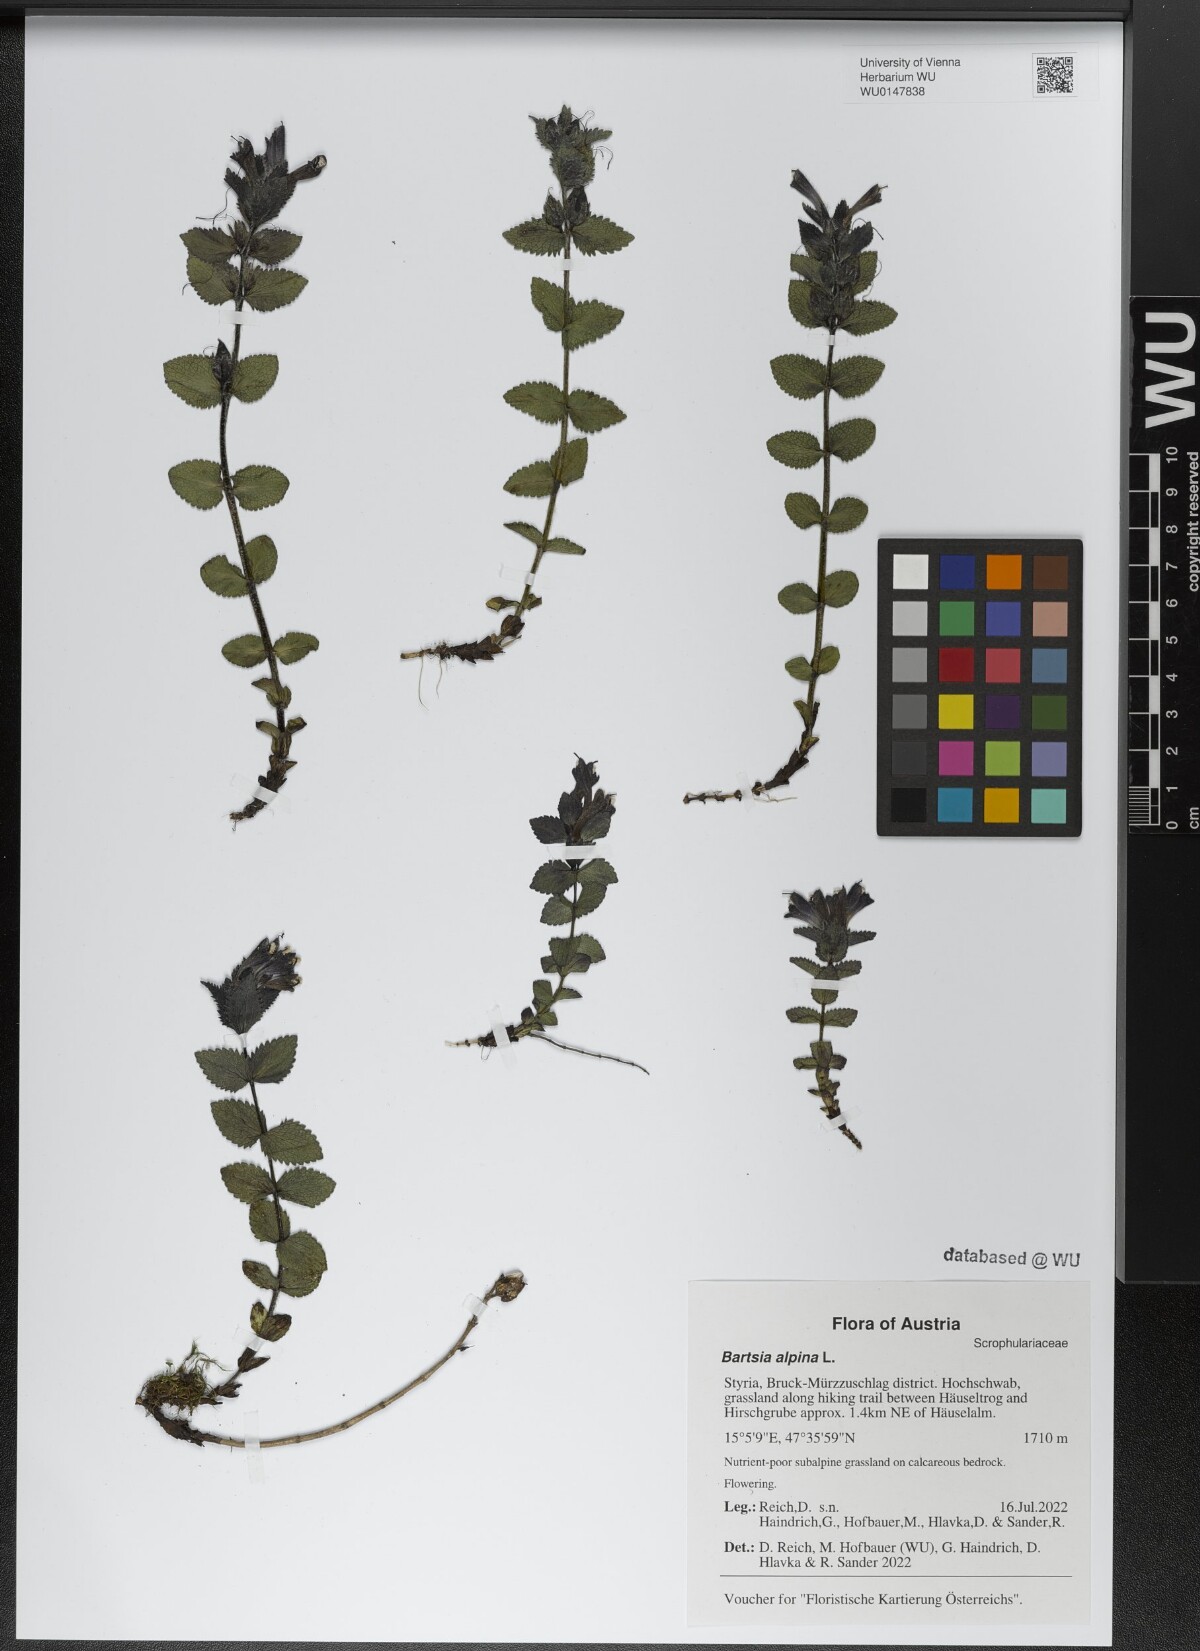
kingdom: Plantae
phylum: Tracheophyta
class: Magnoliopsida
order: Lamiales
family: Orobanchaceae
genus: Bartsia
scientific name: Bartsia alpina
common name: Alpine bartsia
